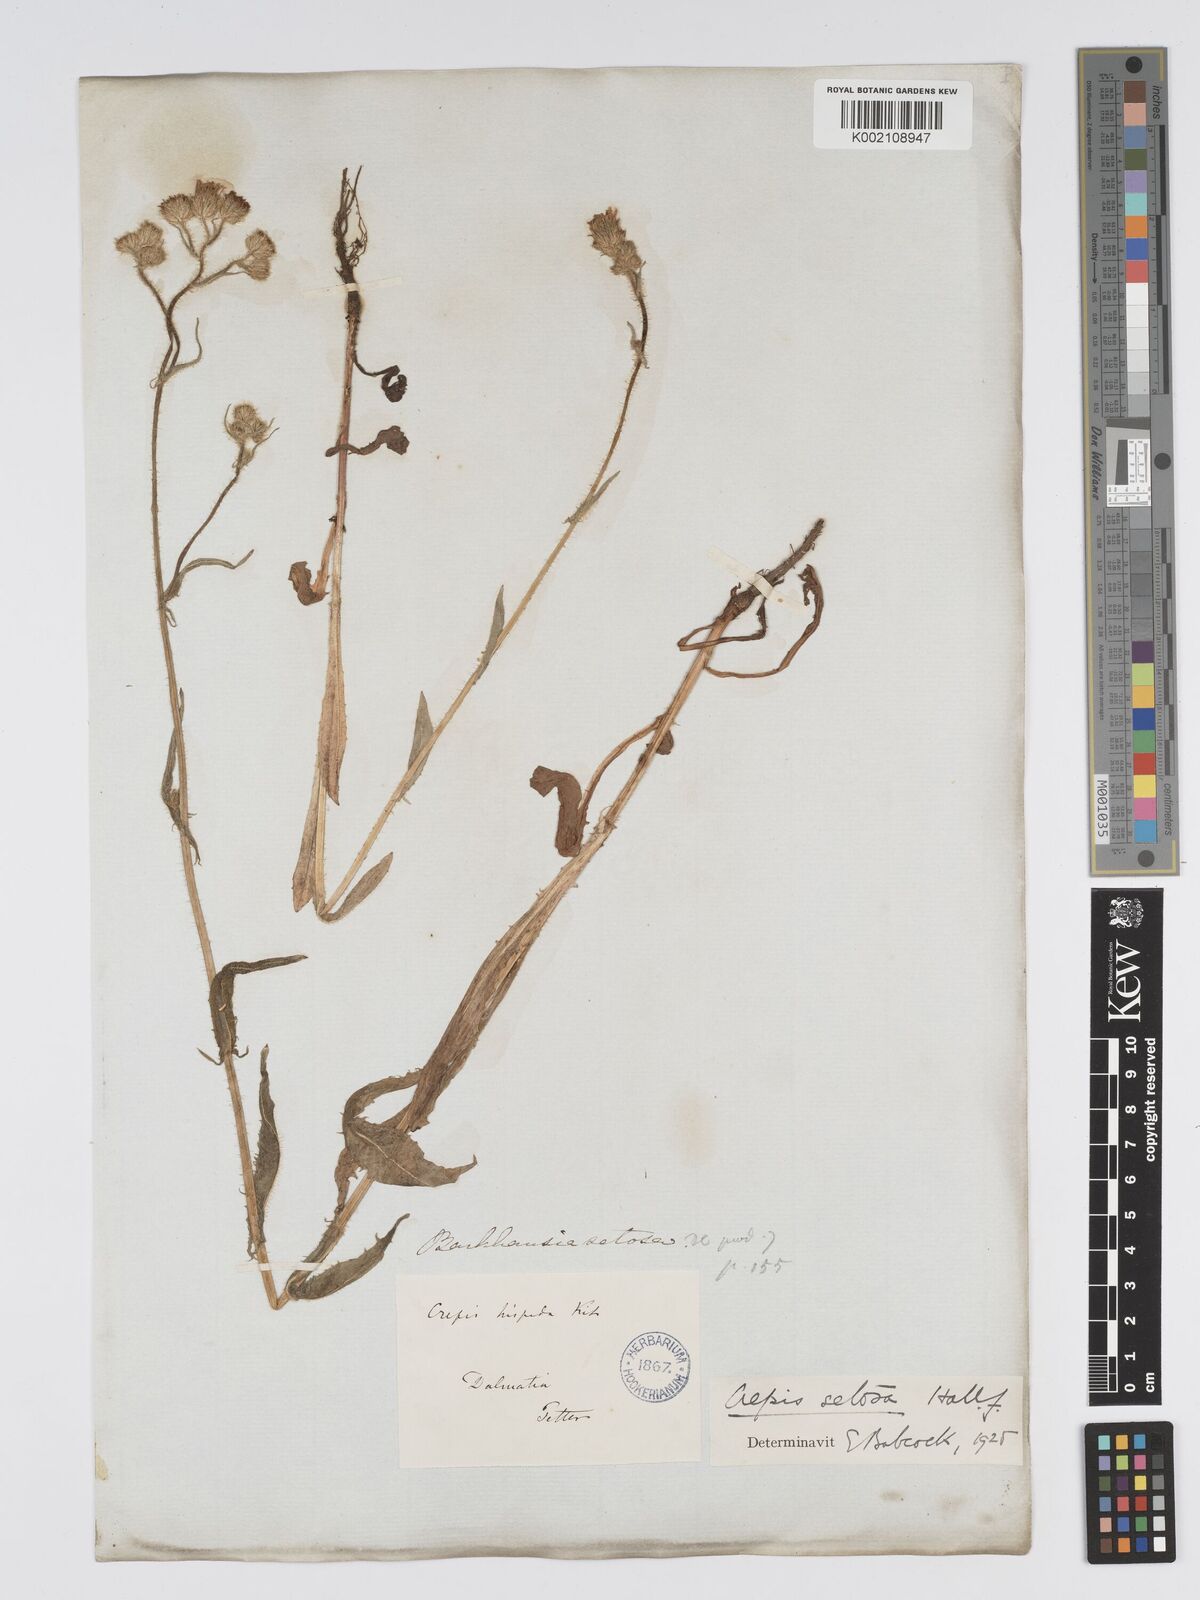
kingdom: Plantae
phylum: Tracheophyta
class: Magnoliopsida
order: Asterales
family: Asteraceae
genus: Crepis
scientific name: Crepis setosa
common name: Bristly hawk's-beard
